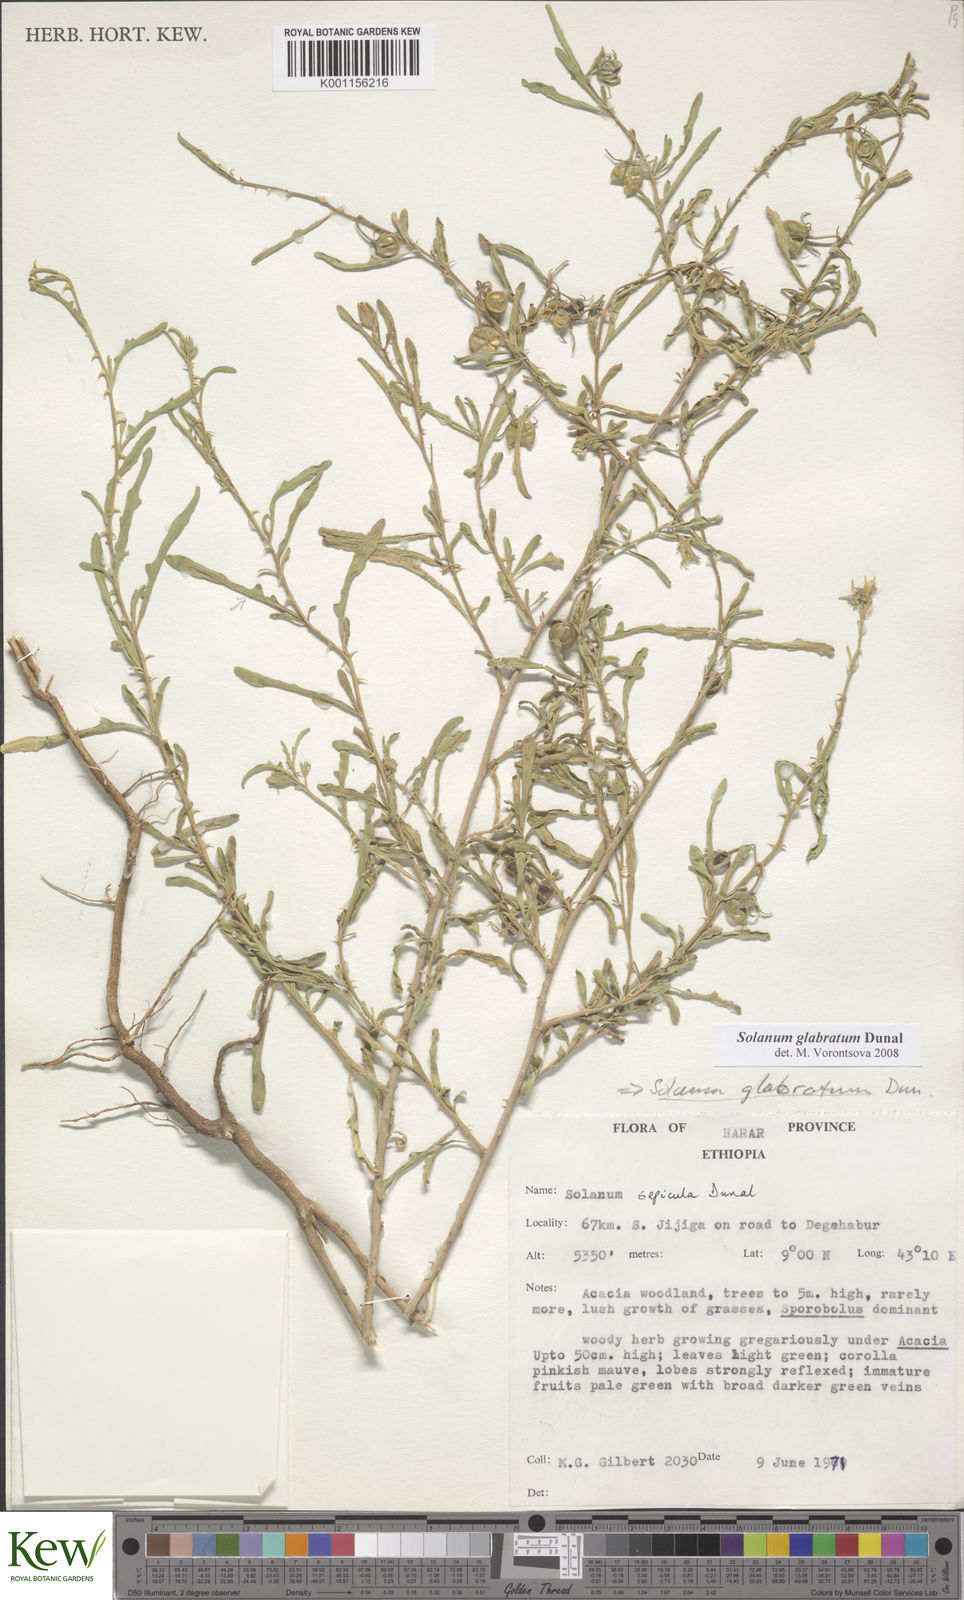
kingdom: Plantae
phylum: Tracheophyta
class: Magnoliopsida
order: Solanales
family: Solanaceae
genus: Solanum
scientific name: Solanum glabratum
